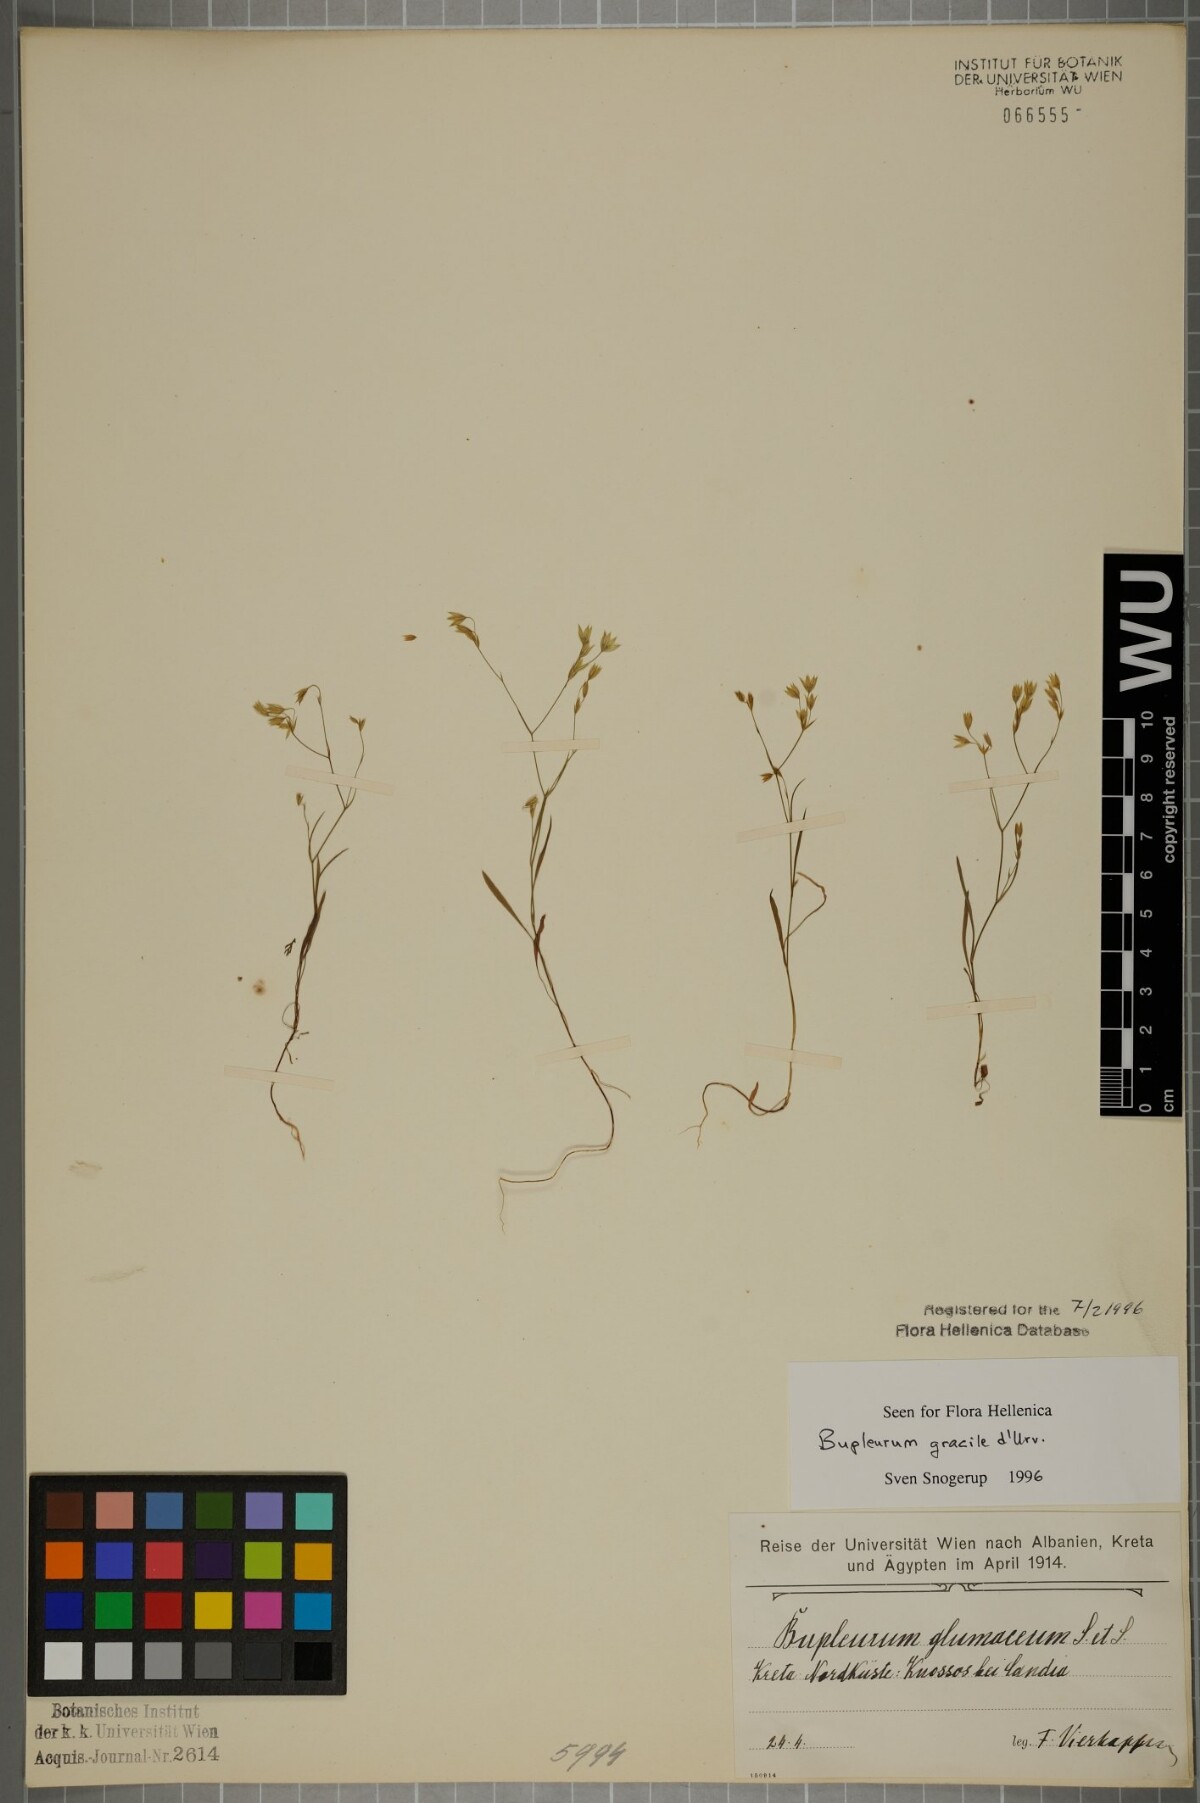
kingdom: Plantae
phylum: Tracheophyta
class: Magnoliopsida
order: Apiales
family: Apiaceae
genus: Bupleurum
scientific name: Bupleurum gracile
